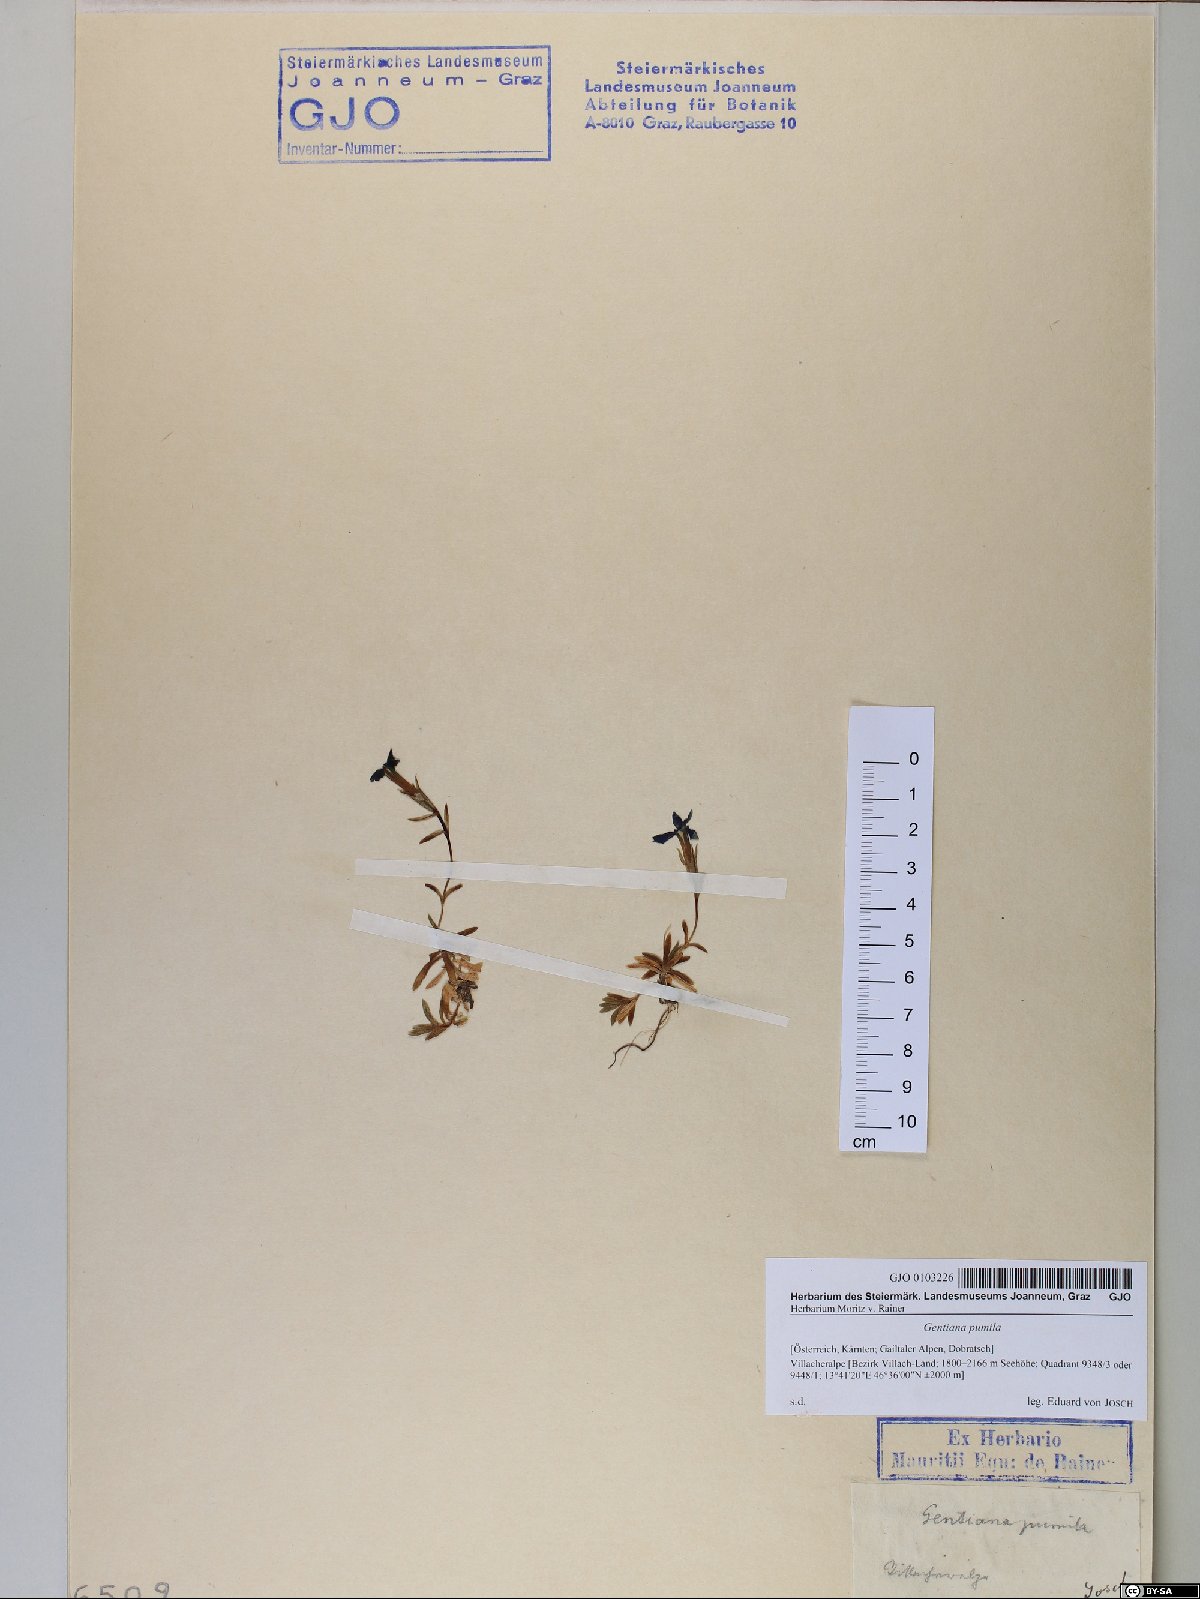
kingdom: Plantae
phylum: Tracheophyta
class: Magnoliopsida
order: Gentianales
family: Gentianaceae
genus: Gentiana
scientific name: Gentiana pumila
